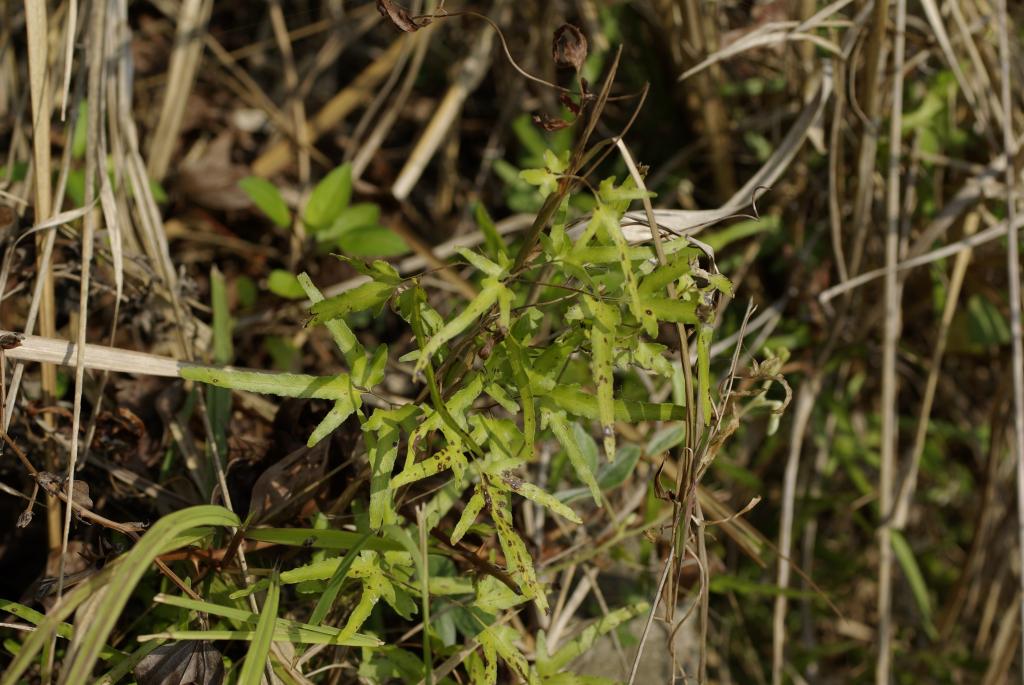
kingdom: Plantae
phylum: Tracheophyta
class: Polypodiopsida
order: Schizaeales
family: Lygodiaceae
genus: Lygodium
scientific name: Lygodium japonicum
